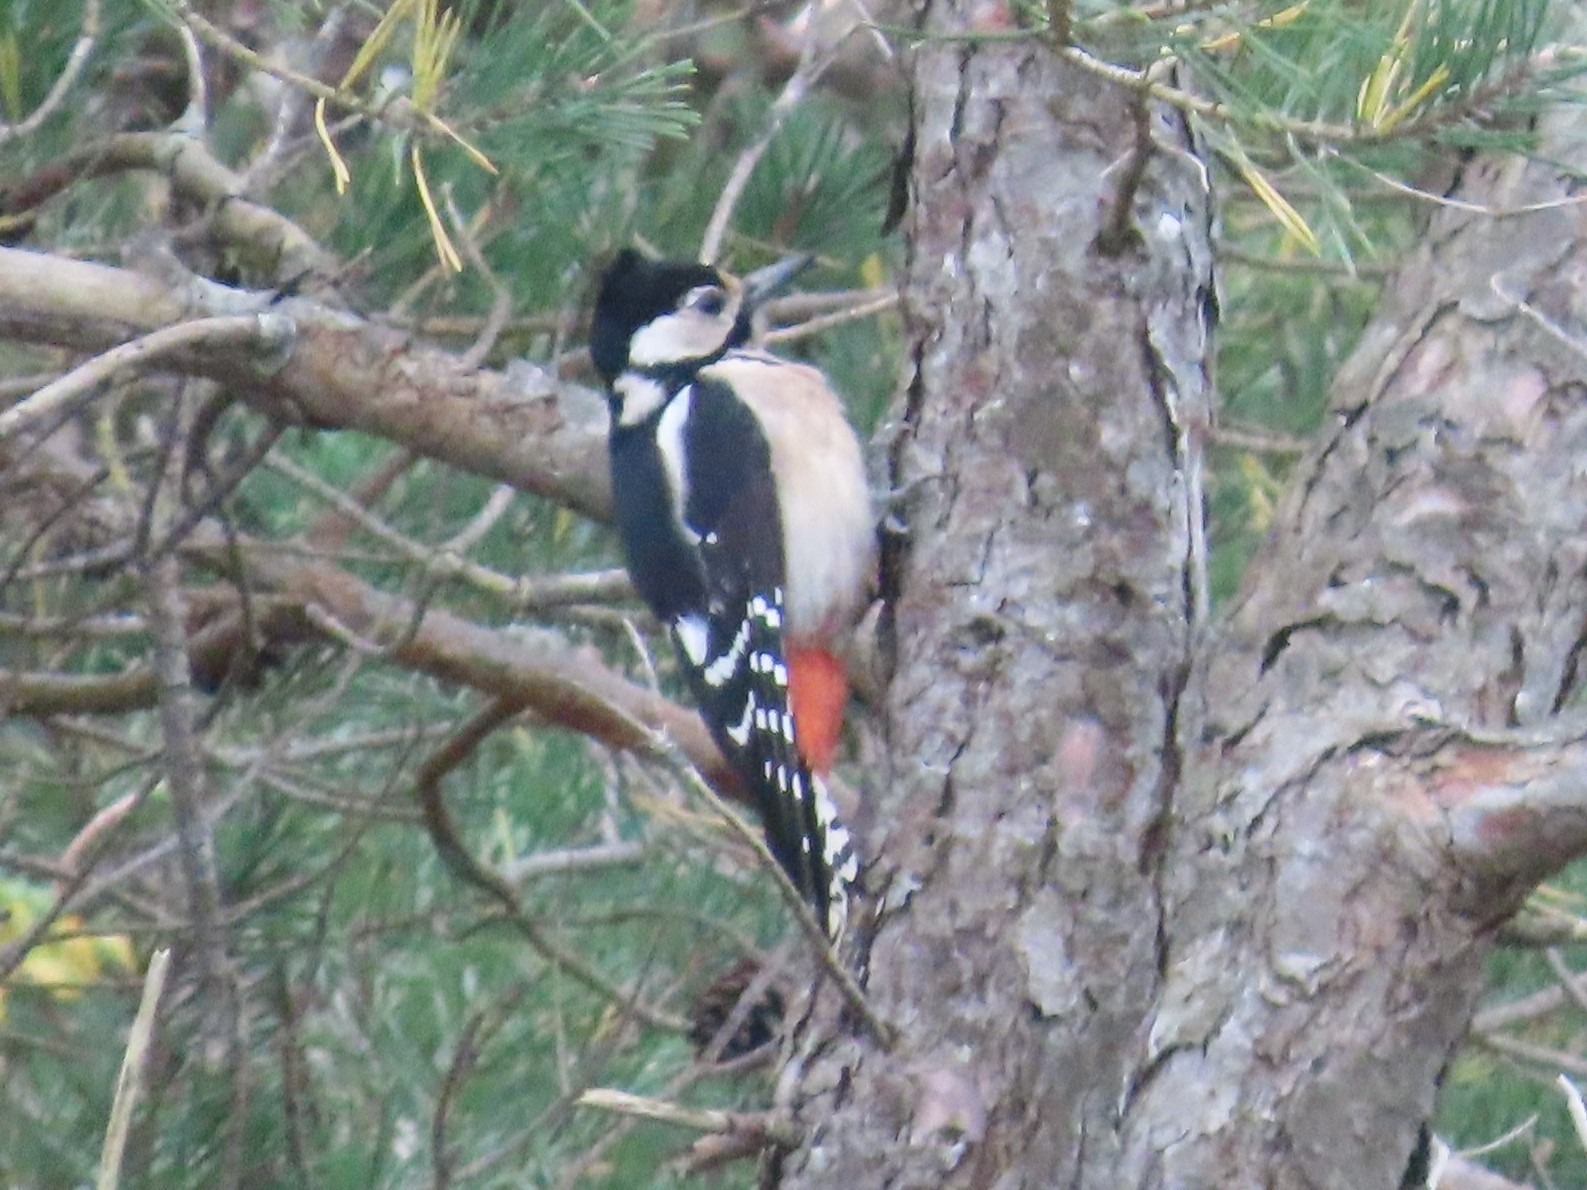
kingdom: Animalia
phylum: Chordata
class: Aves
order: Piciformes
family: Picidae
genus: Dendrocopos
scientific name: Dendrocopos major
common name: Stor flagspætte
